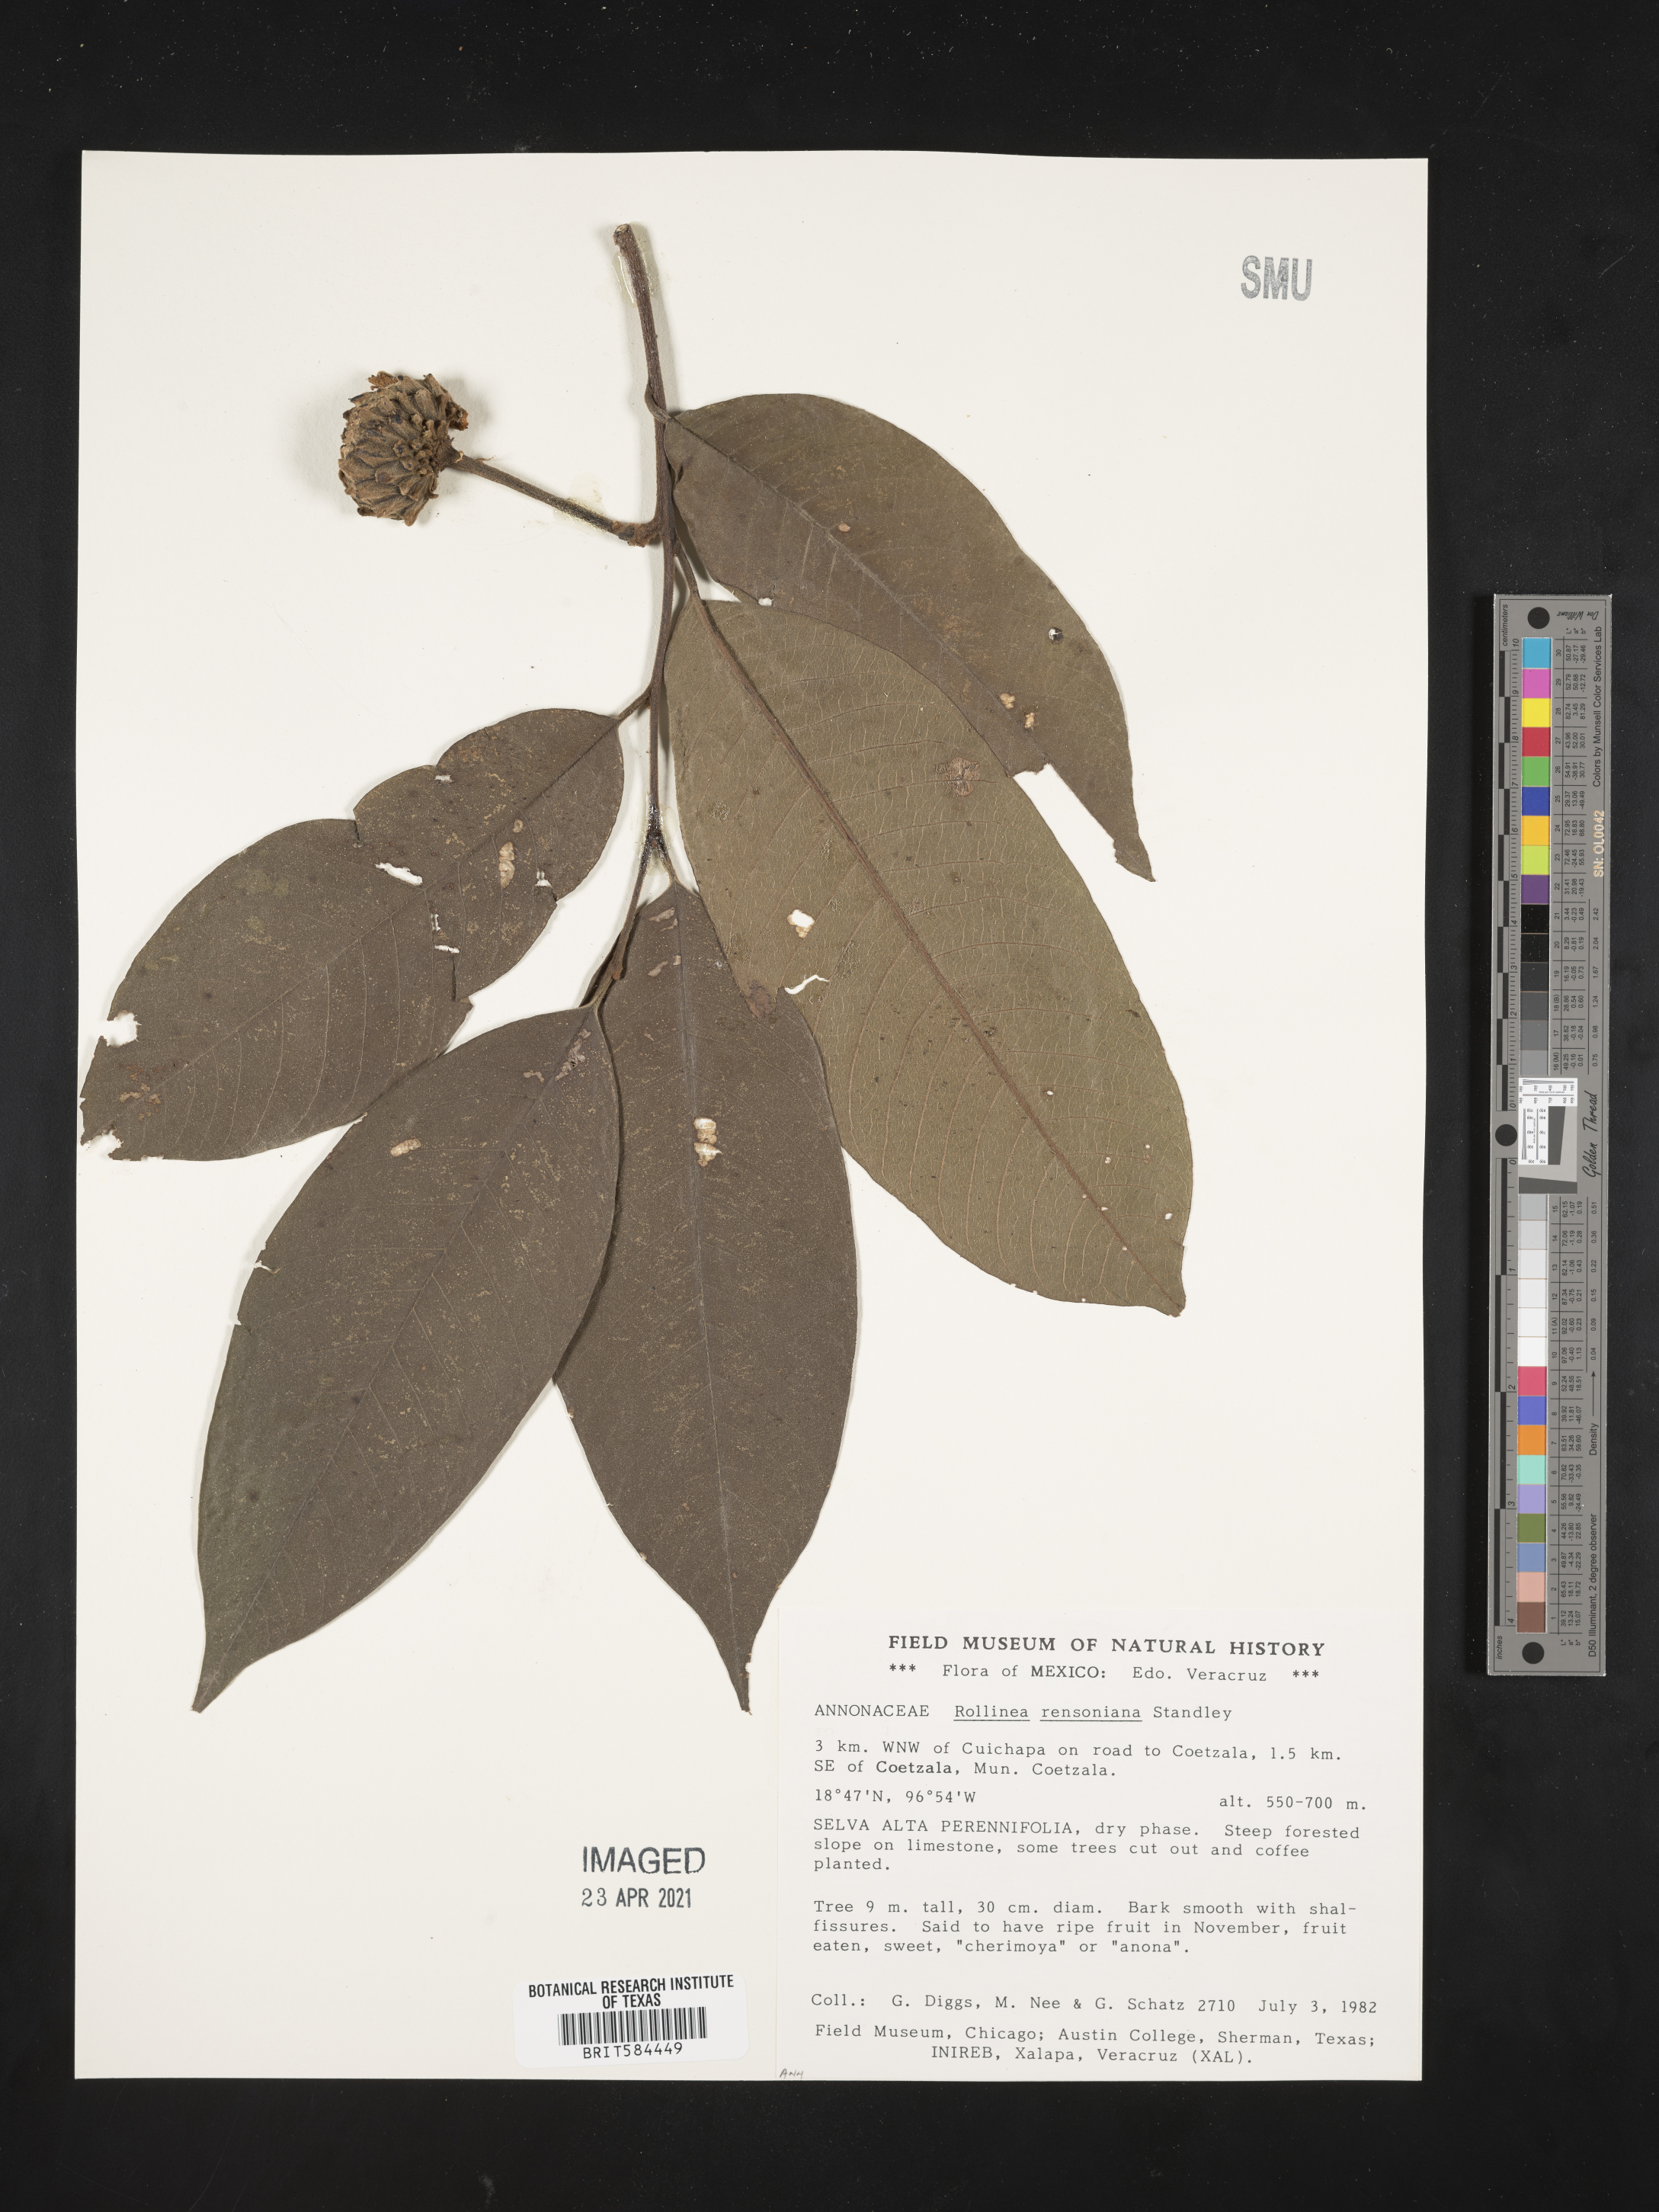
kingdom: Plantae
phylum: Tracheophyta
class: Magnoliopsida
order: Magnoliales
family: Annonaceae
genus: Annona
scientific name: Annona rensoniana
